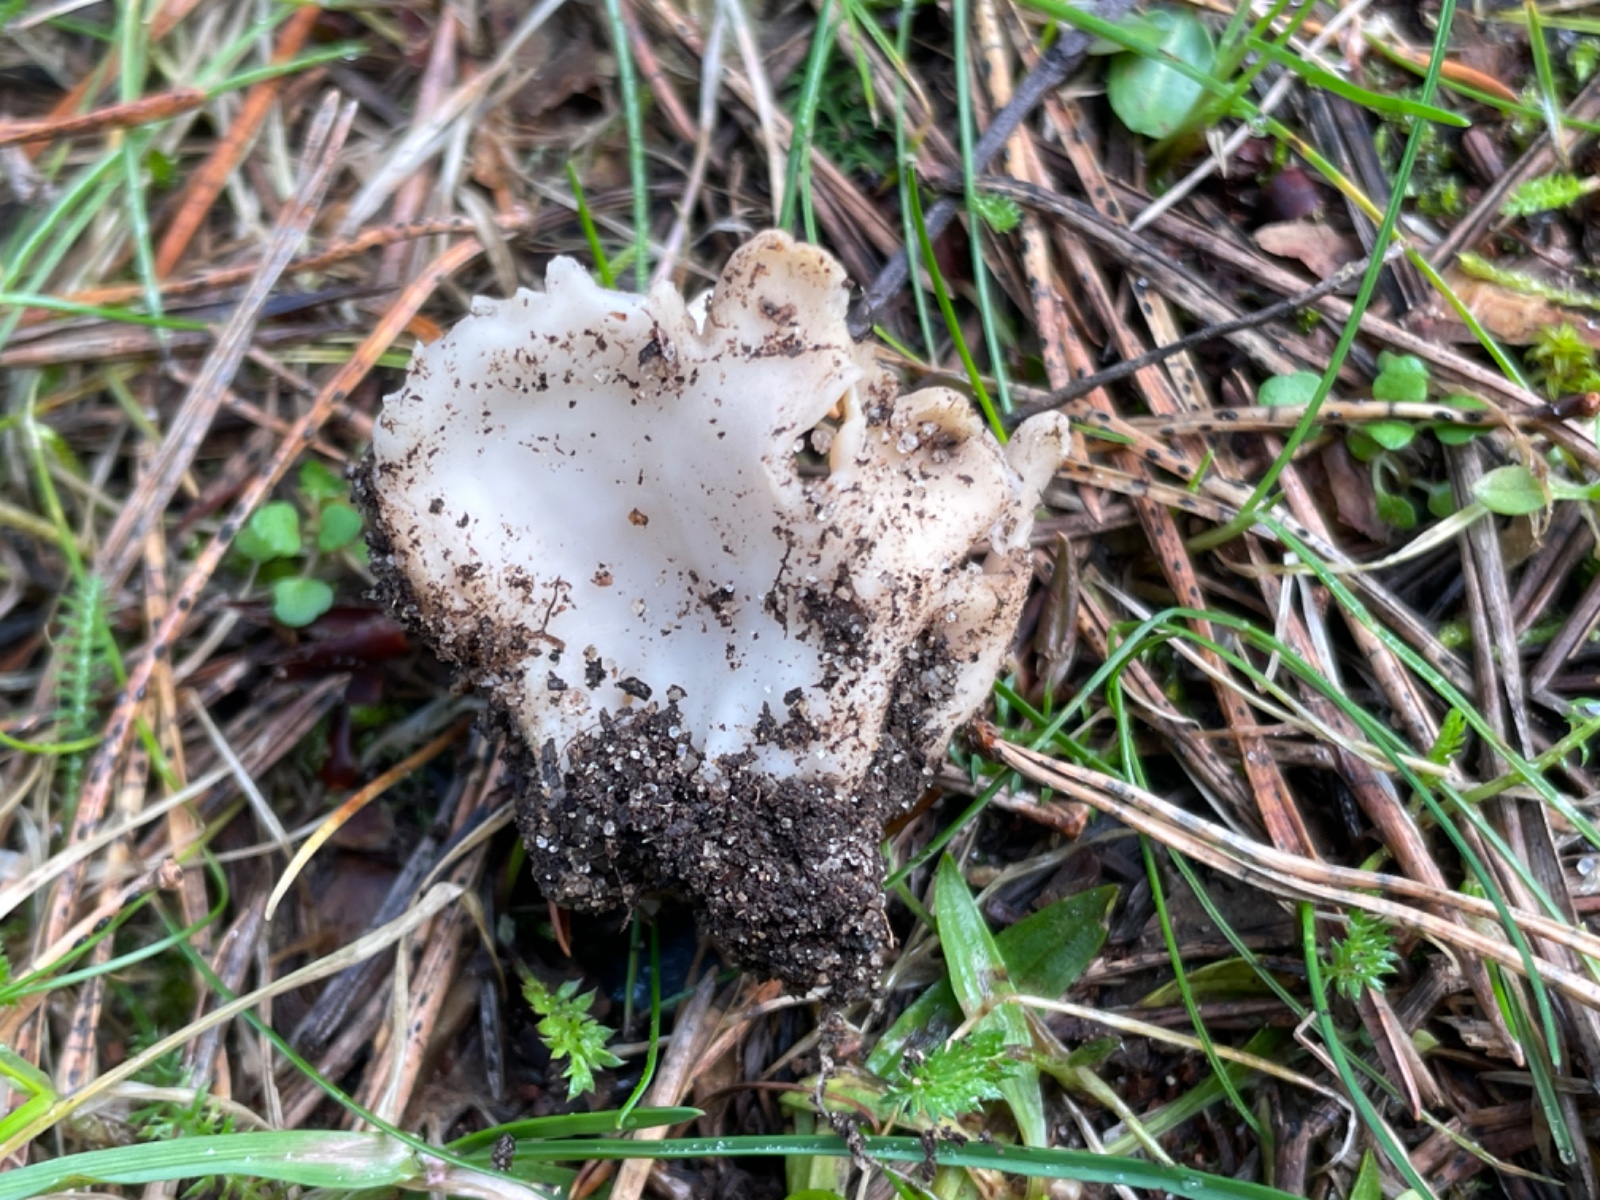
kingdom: Fungi
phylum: Ascomycota
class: Pezizomycetes
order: Pezizales
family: Helvellaceae
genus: Dissingia
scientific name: Dissingia leucomelaena
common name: sorthvid foldhat
